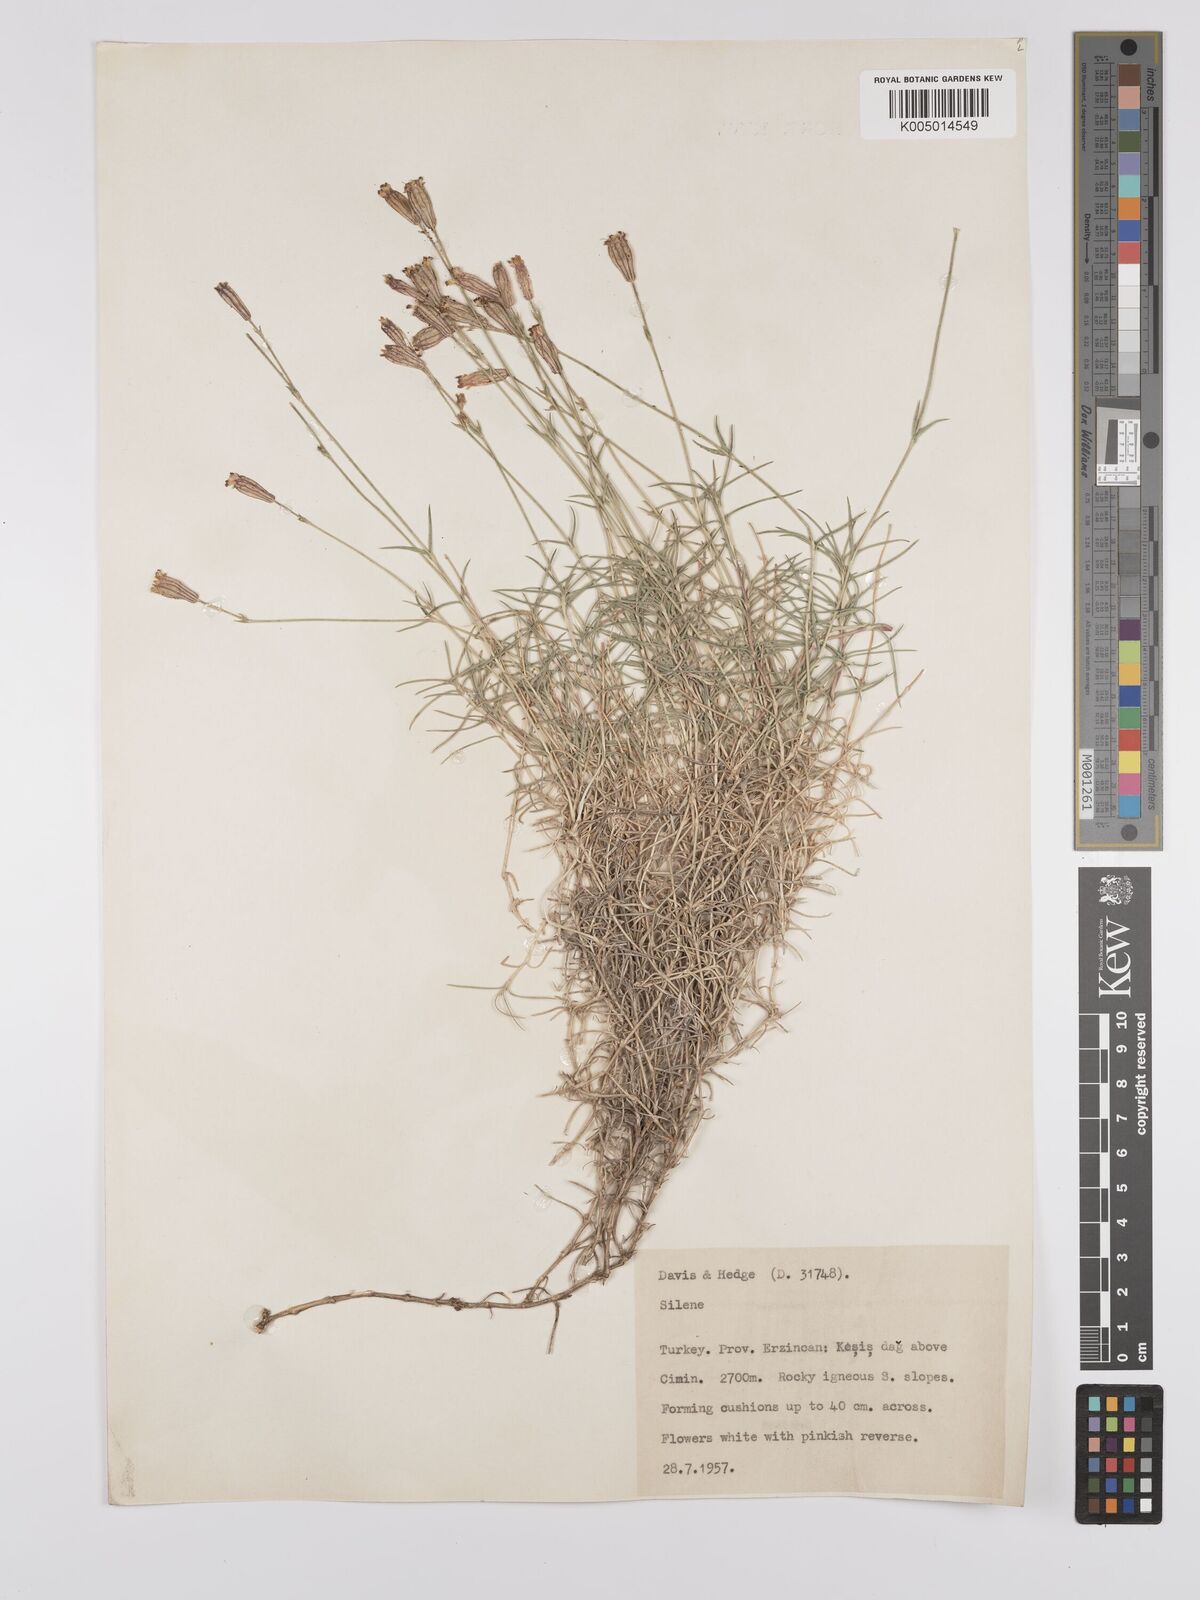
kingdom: Plantae
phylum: Tracheophyta
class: Magnoliopsida
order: Caryophyllales
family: Caryophyllaceae
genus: Silene
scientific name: Silene
